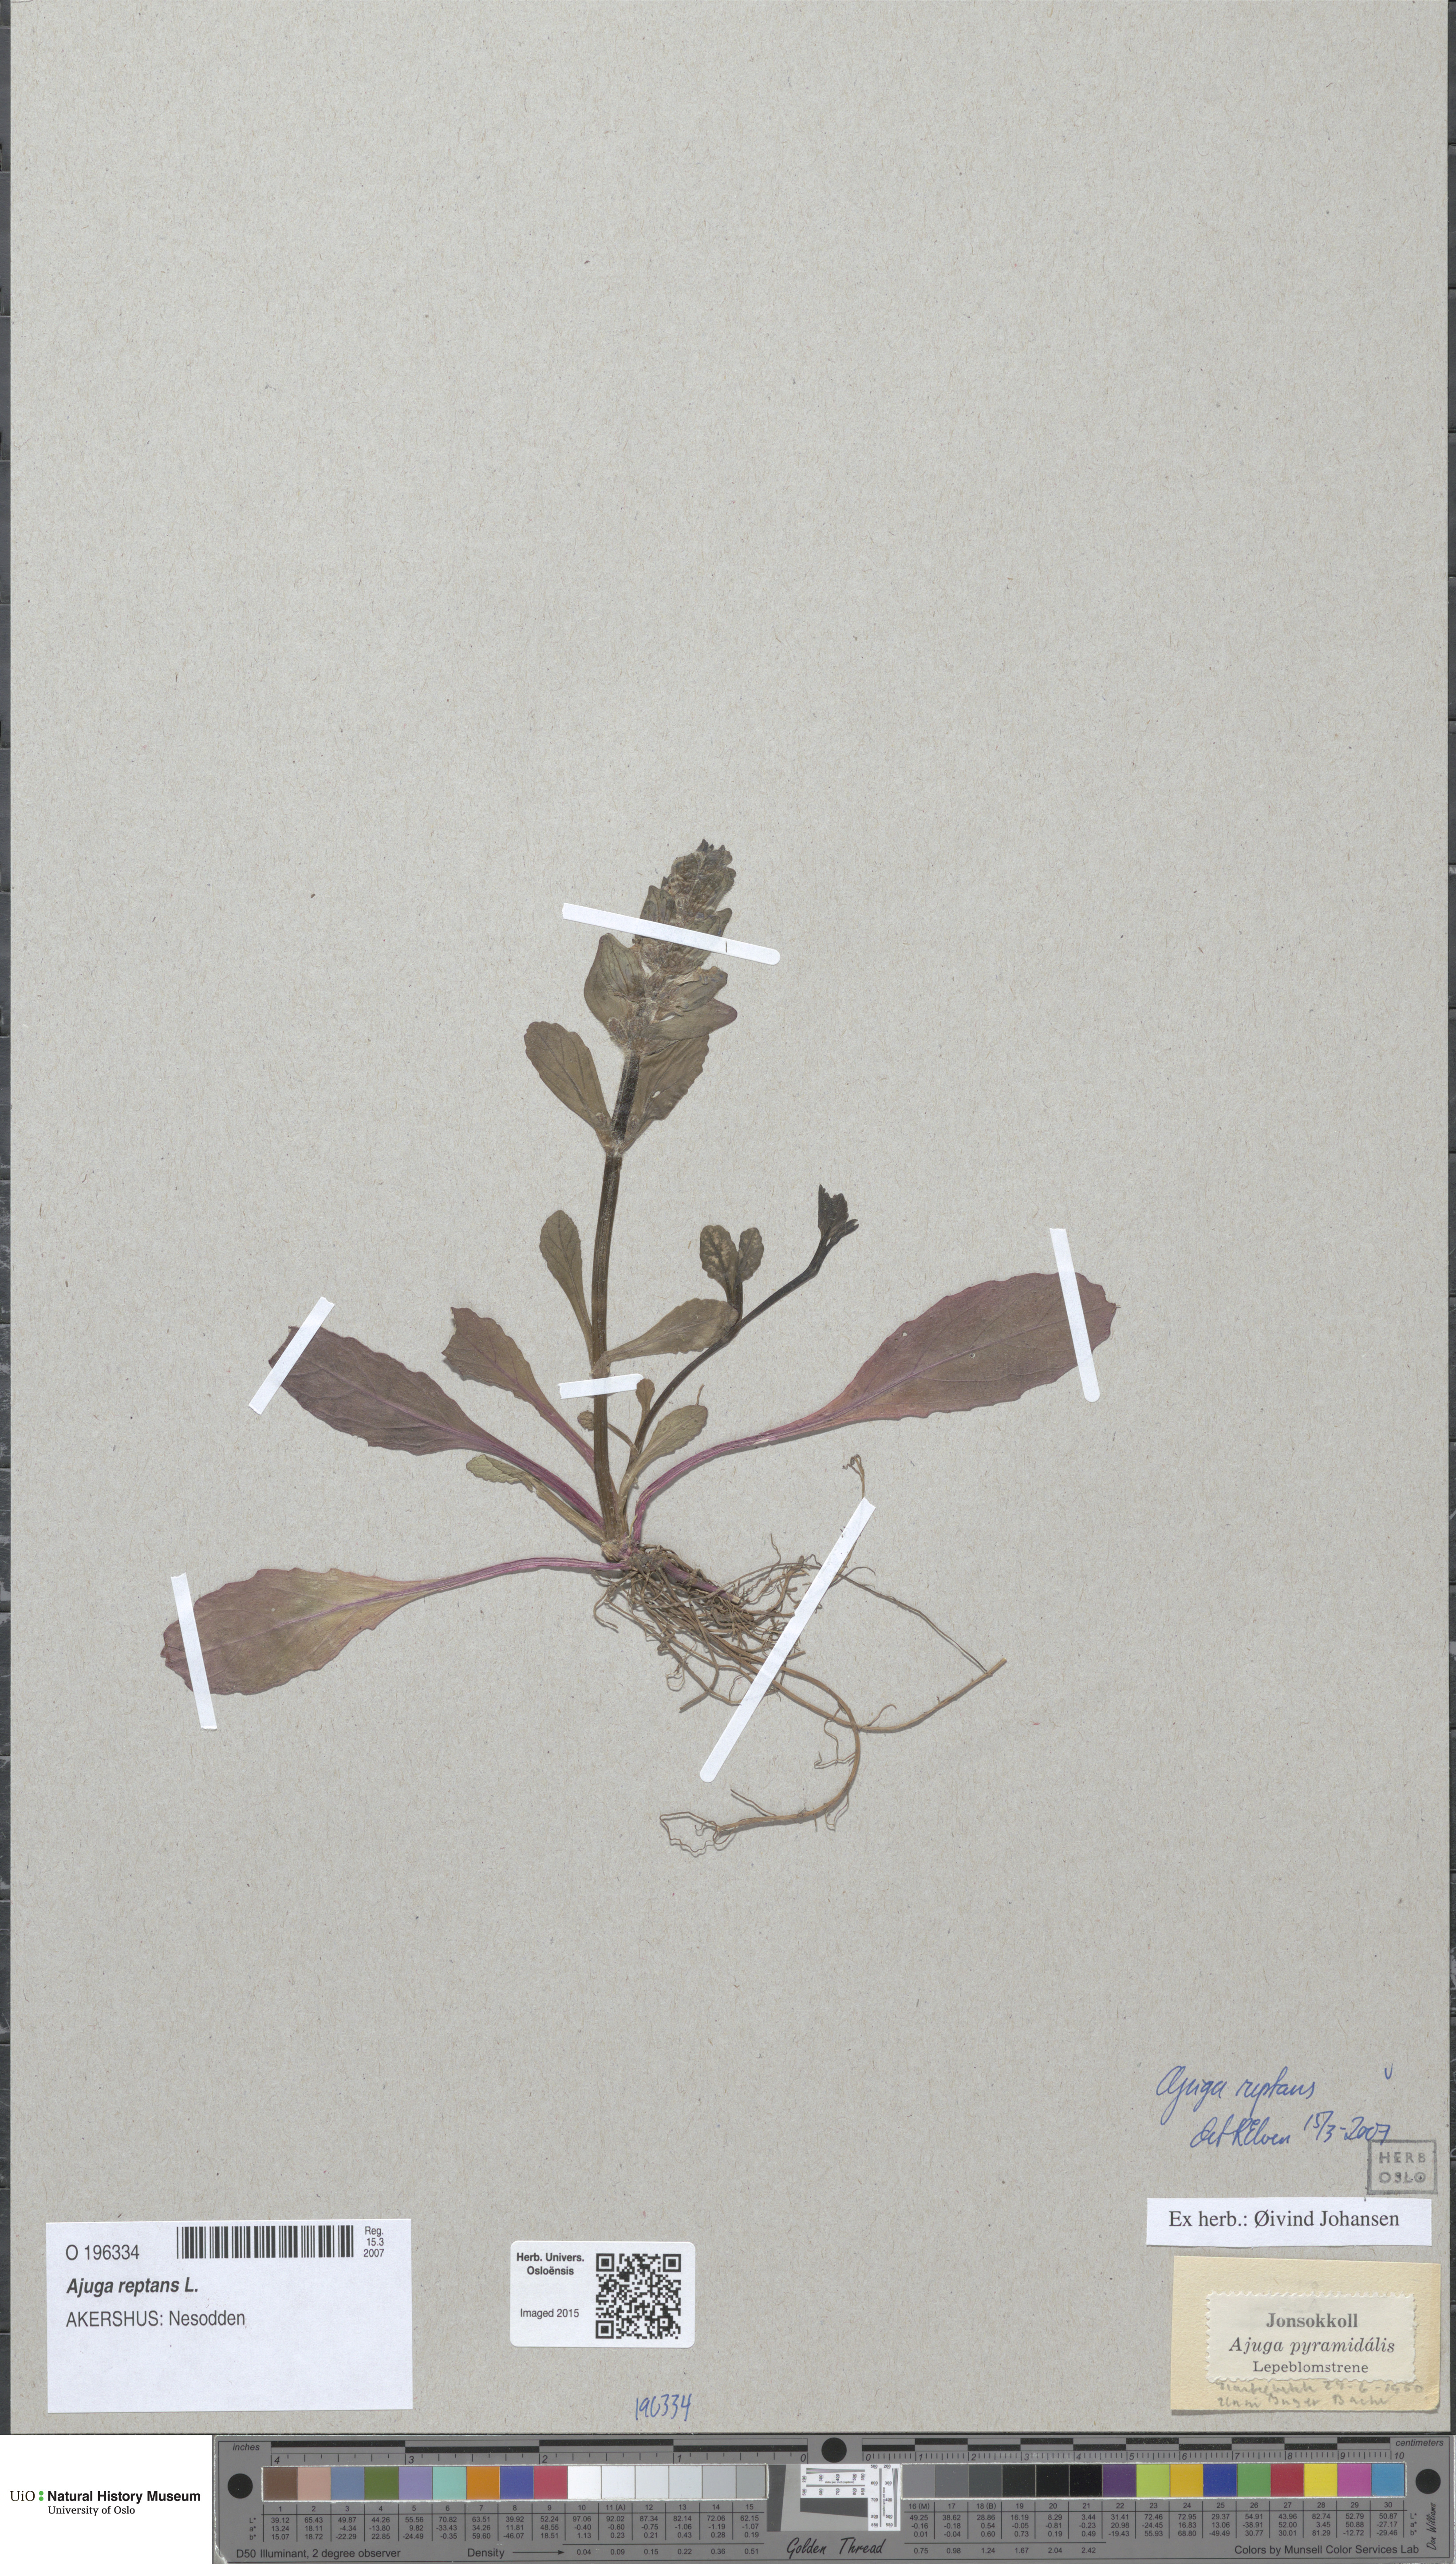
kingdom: Plantae
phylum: Tracheophyta
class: Magnoliopsida
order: Lamiales
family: Lamiaceae
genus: Ajuga
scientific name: Ajuga reptans
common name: Bugle
